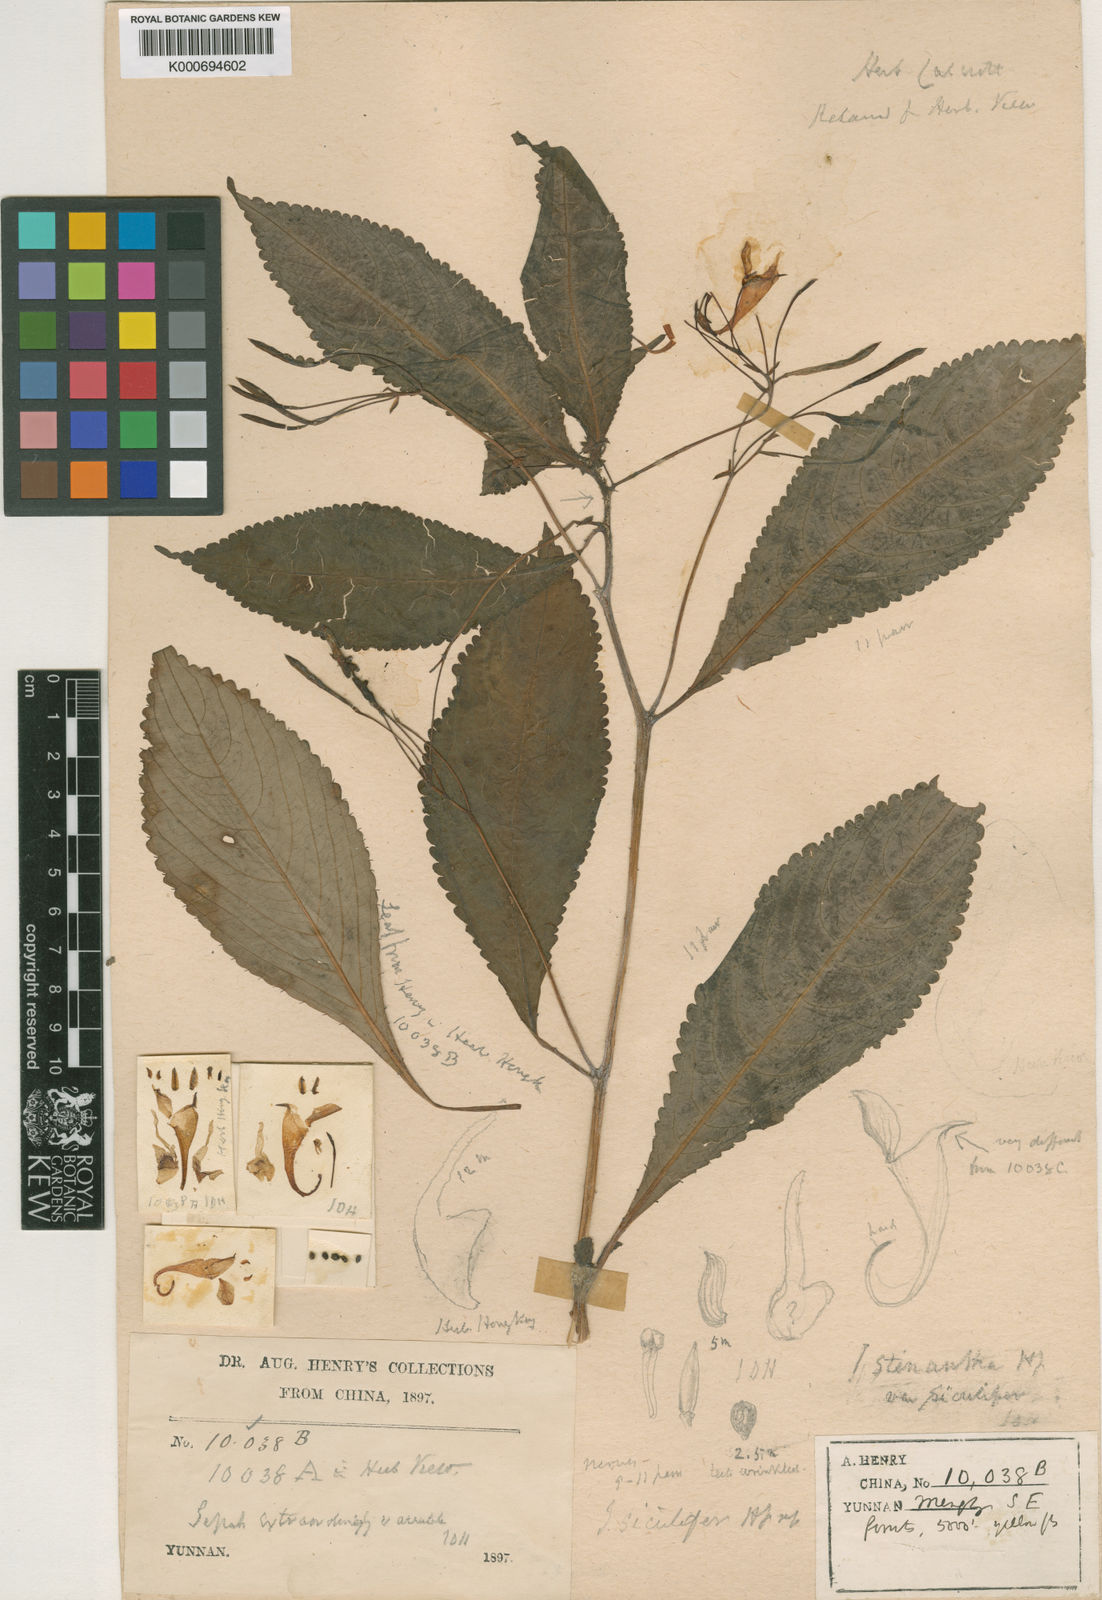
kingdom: Plantae
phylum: Tracheophyta
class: Magnoliopsida
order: Ericales
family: Balsaminaceae
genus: Impatiens
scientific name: Impatiens siculifera
